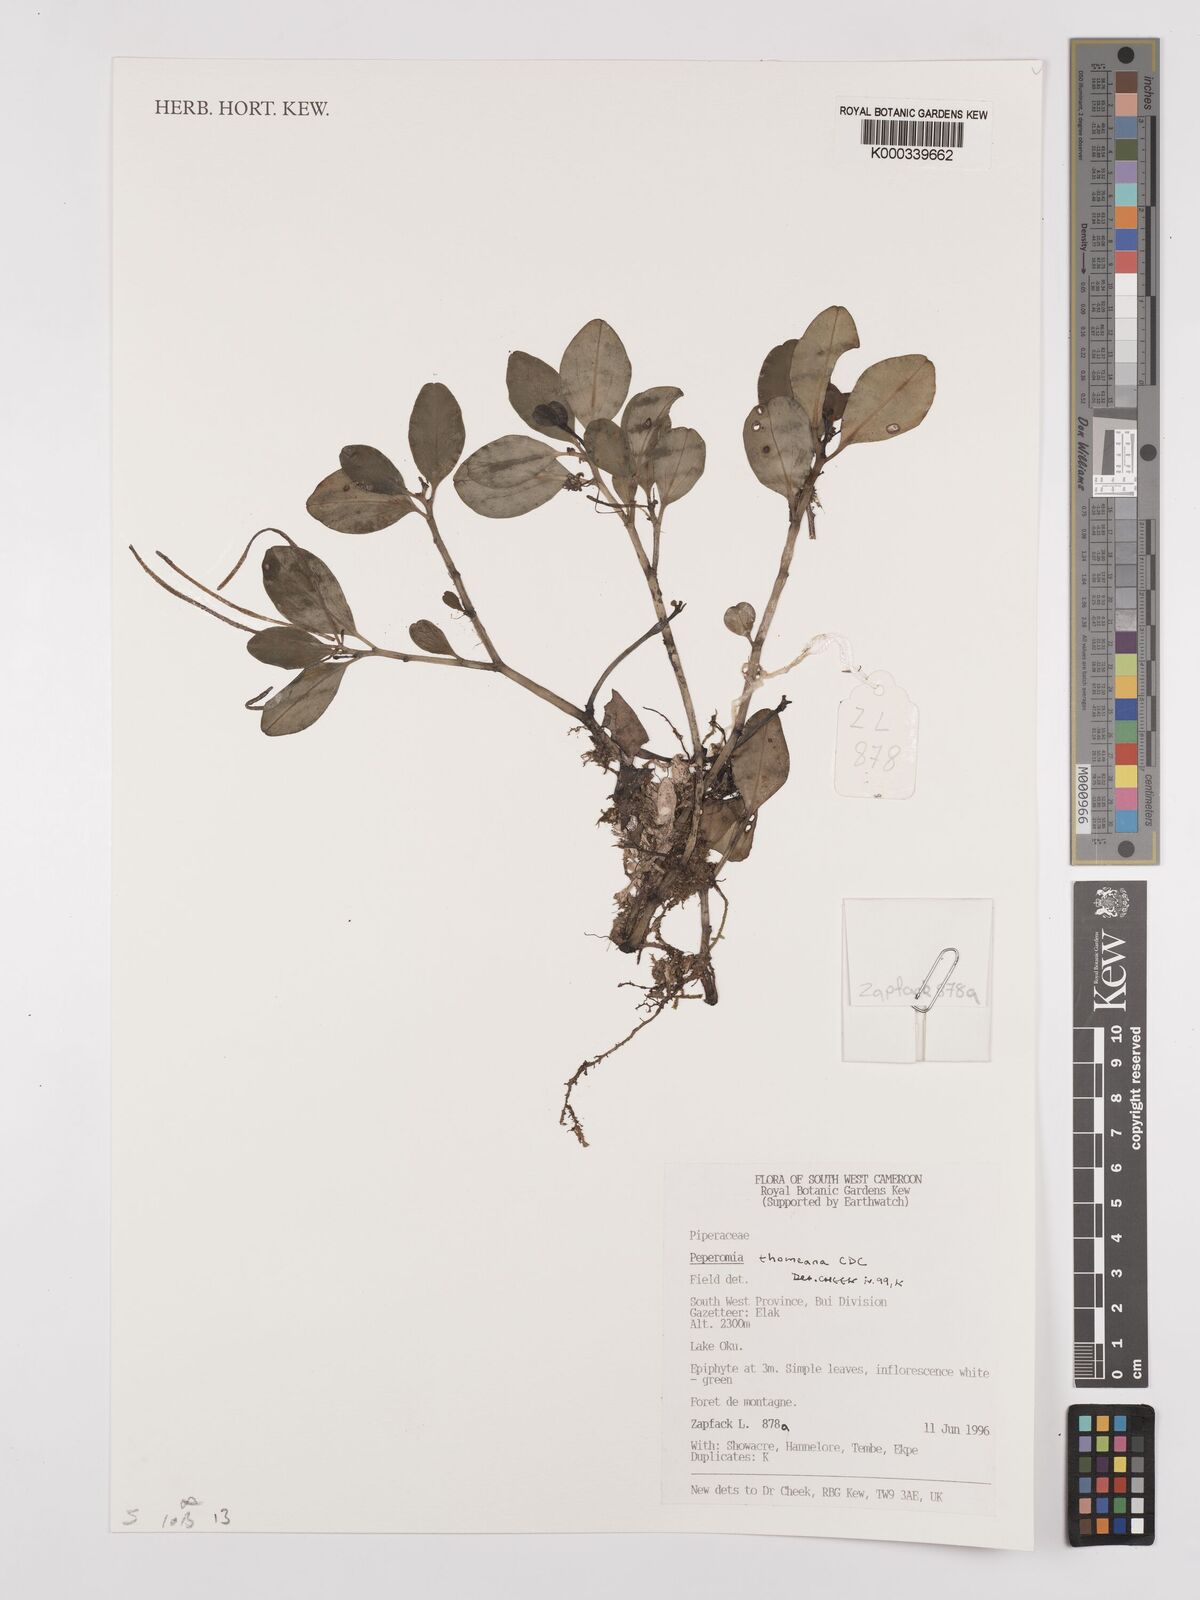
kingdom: Plantae
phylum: Tracheophyta
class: Magnoliopsida
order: Piperales
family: Piperaceae
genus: Peperomia
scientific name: Peperomia thomeana
